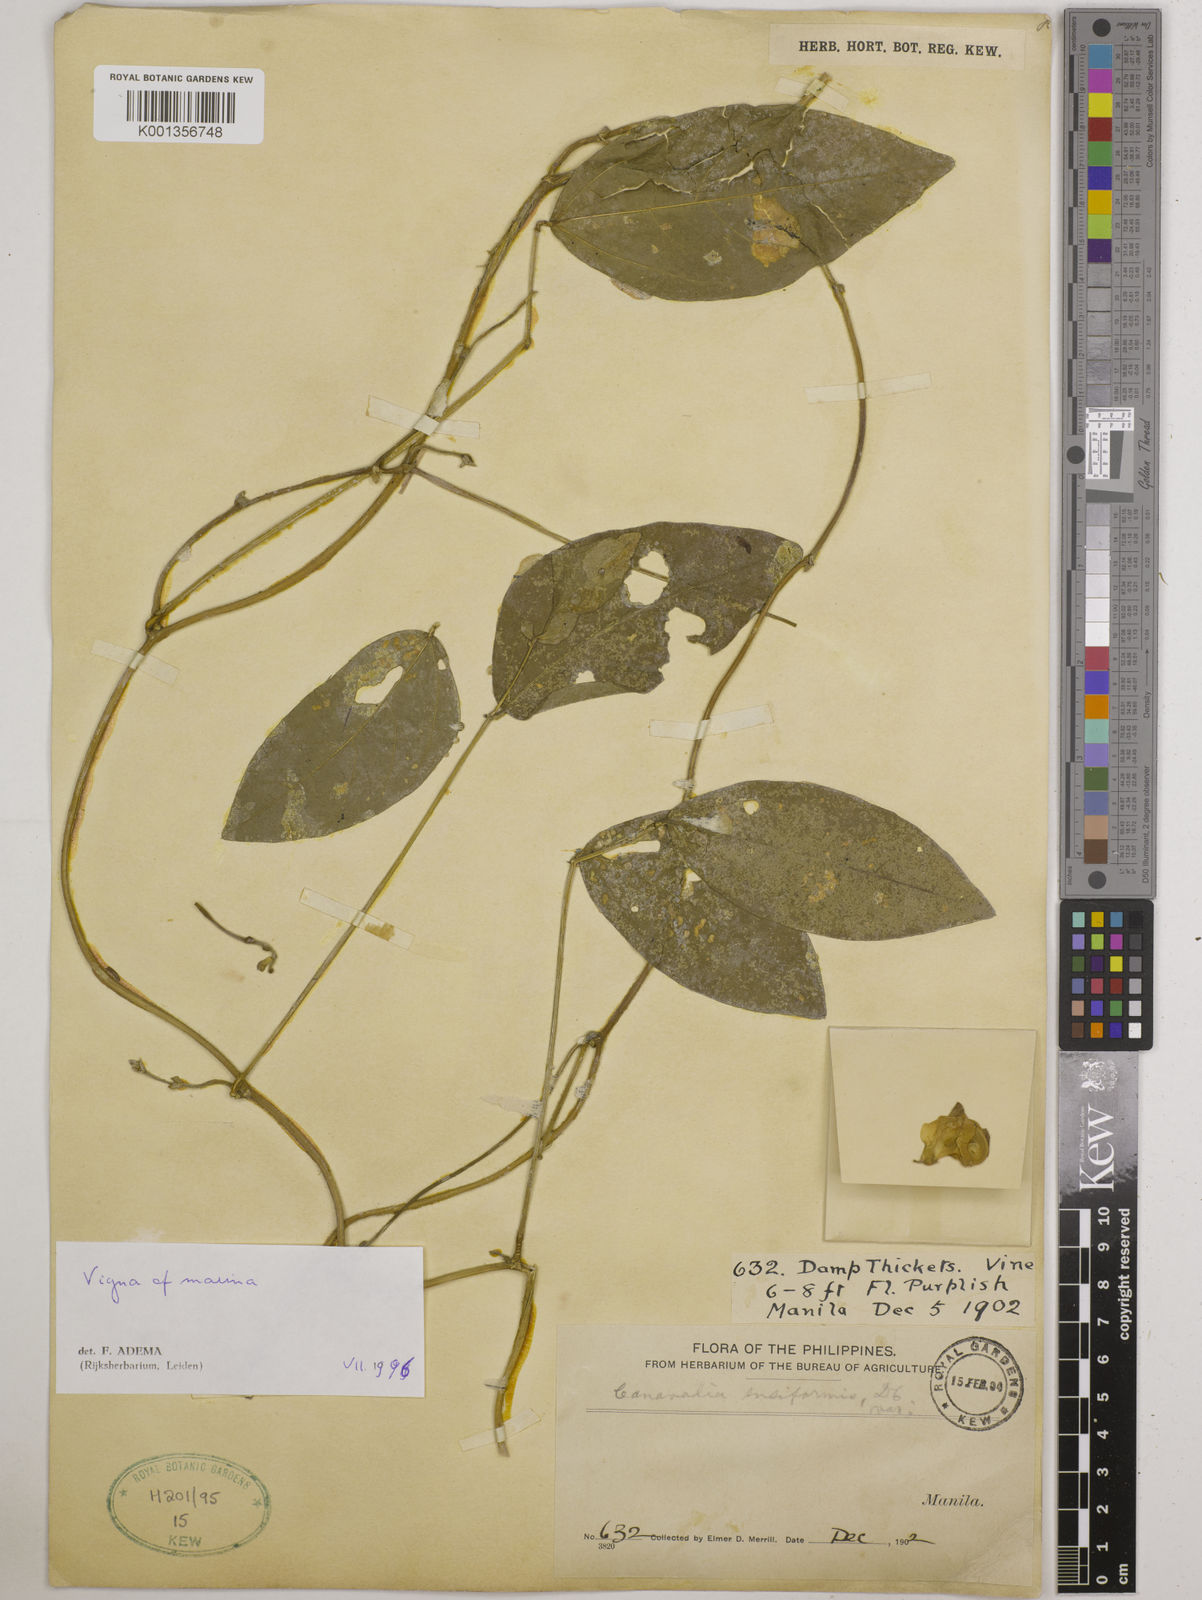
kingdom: Plantae
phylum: Tracheophyta
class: Magnoliopsida
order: Fabales
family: Fabaceae
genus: Vigna
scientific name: Vigna marina
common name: Dune-bean
